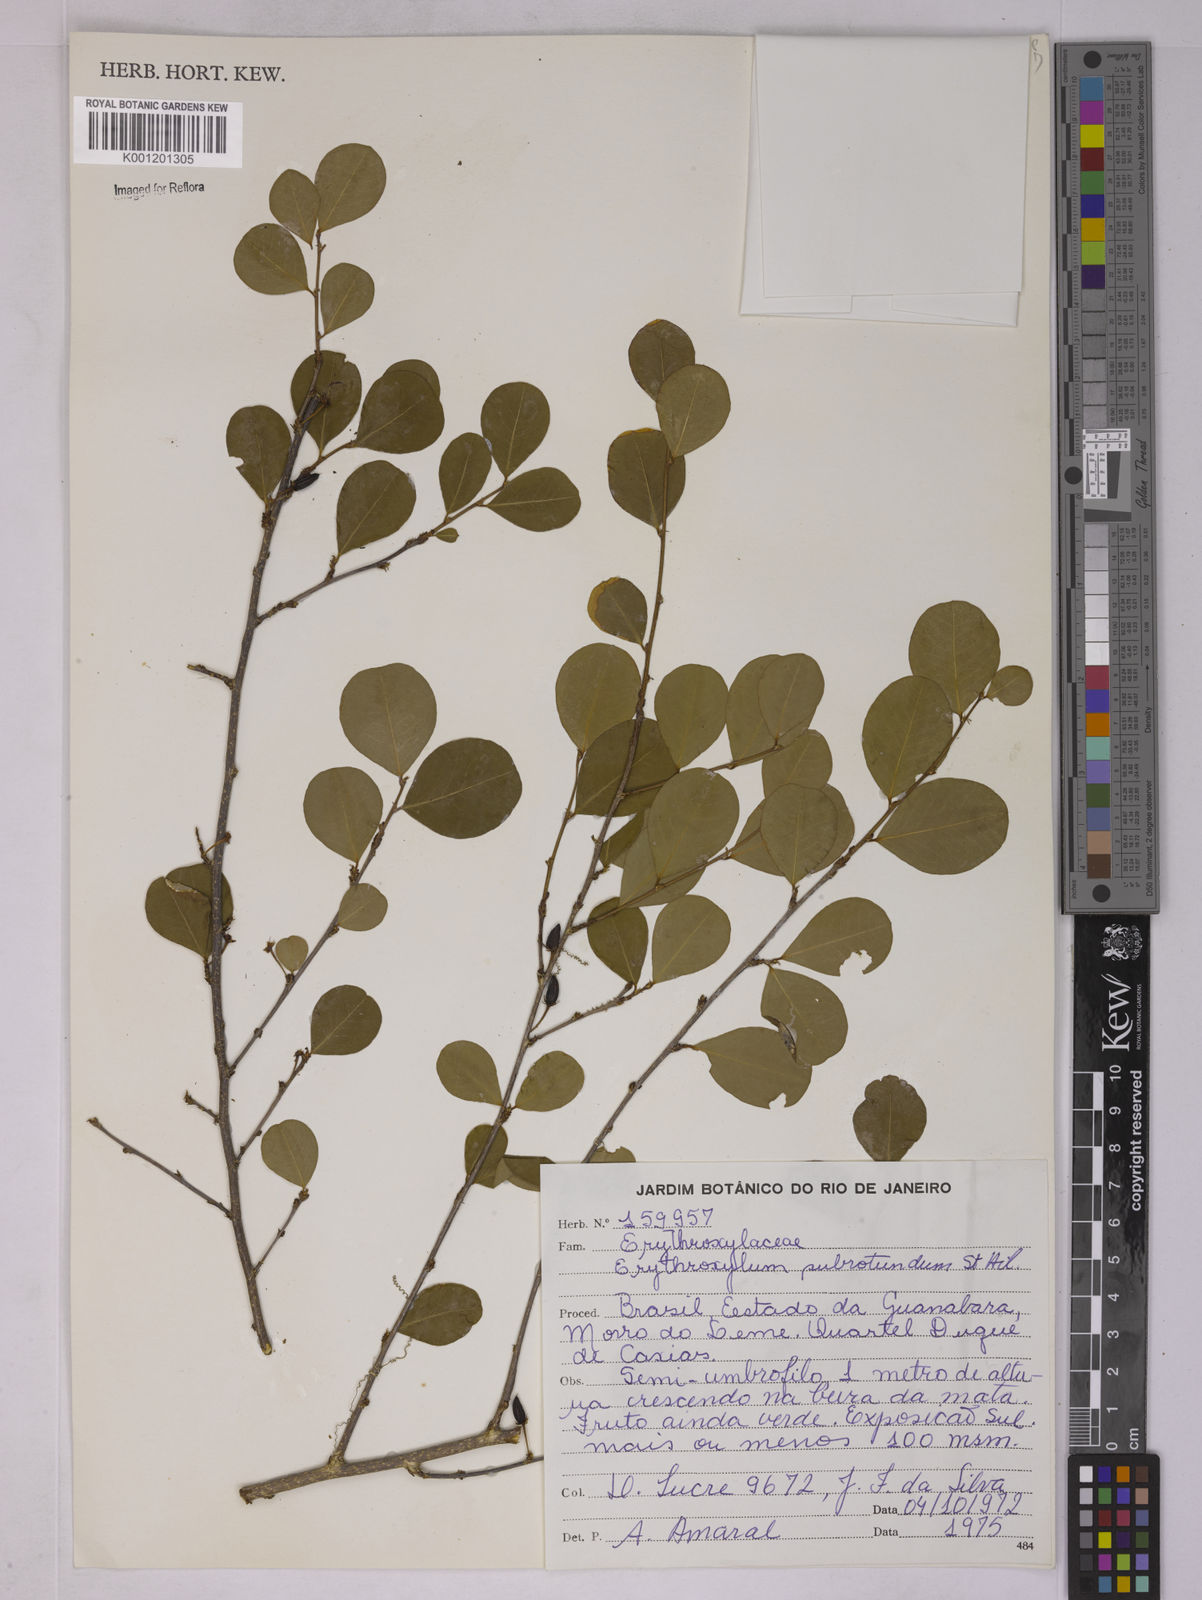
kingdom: Plantae
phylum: Tracheophyta
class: Magnoliopsida
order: Malpighiales
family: Erythroxylaceae
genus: Erythroxylum
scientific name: Erythroxylum subrotundum
